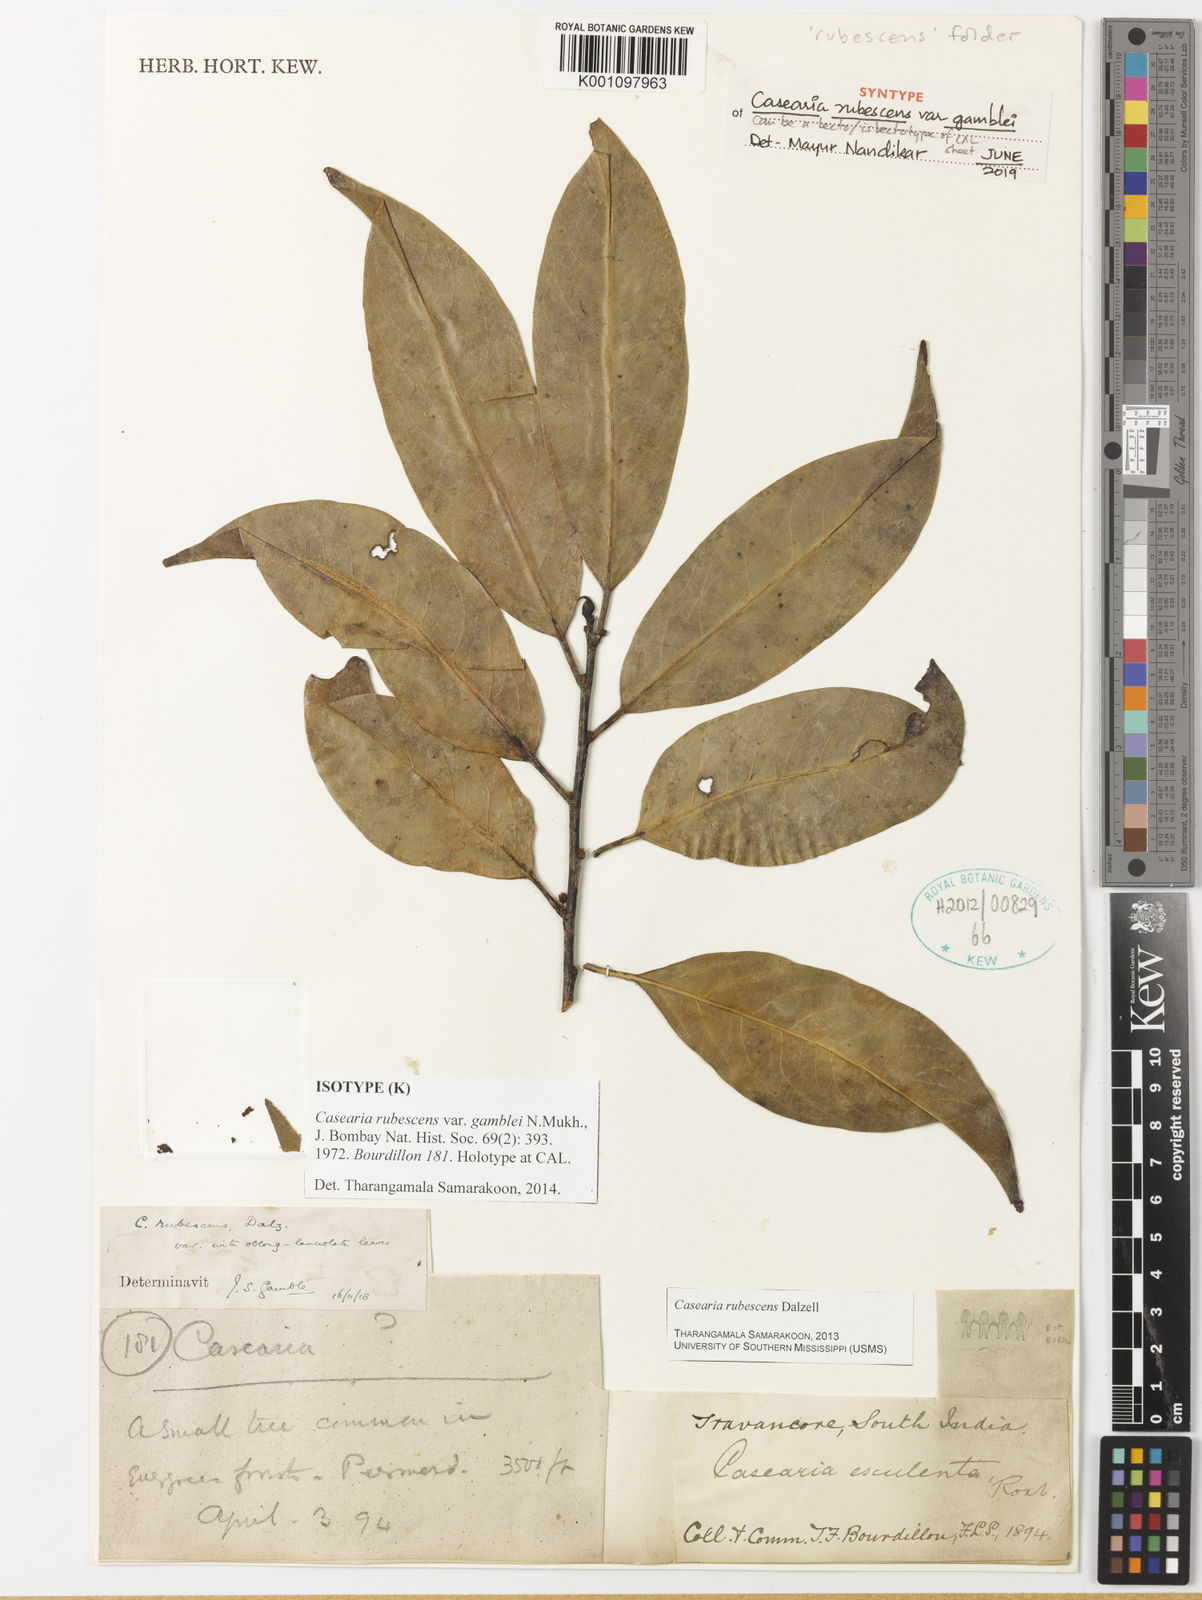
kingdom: Plantae
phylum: Tracheophyta
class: Magnoliopsida
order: Malpighiales
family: Salicaceae
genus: Casearia
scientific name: Casearia rubescens
